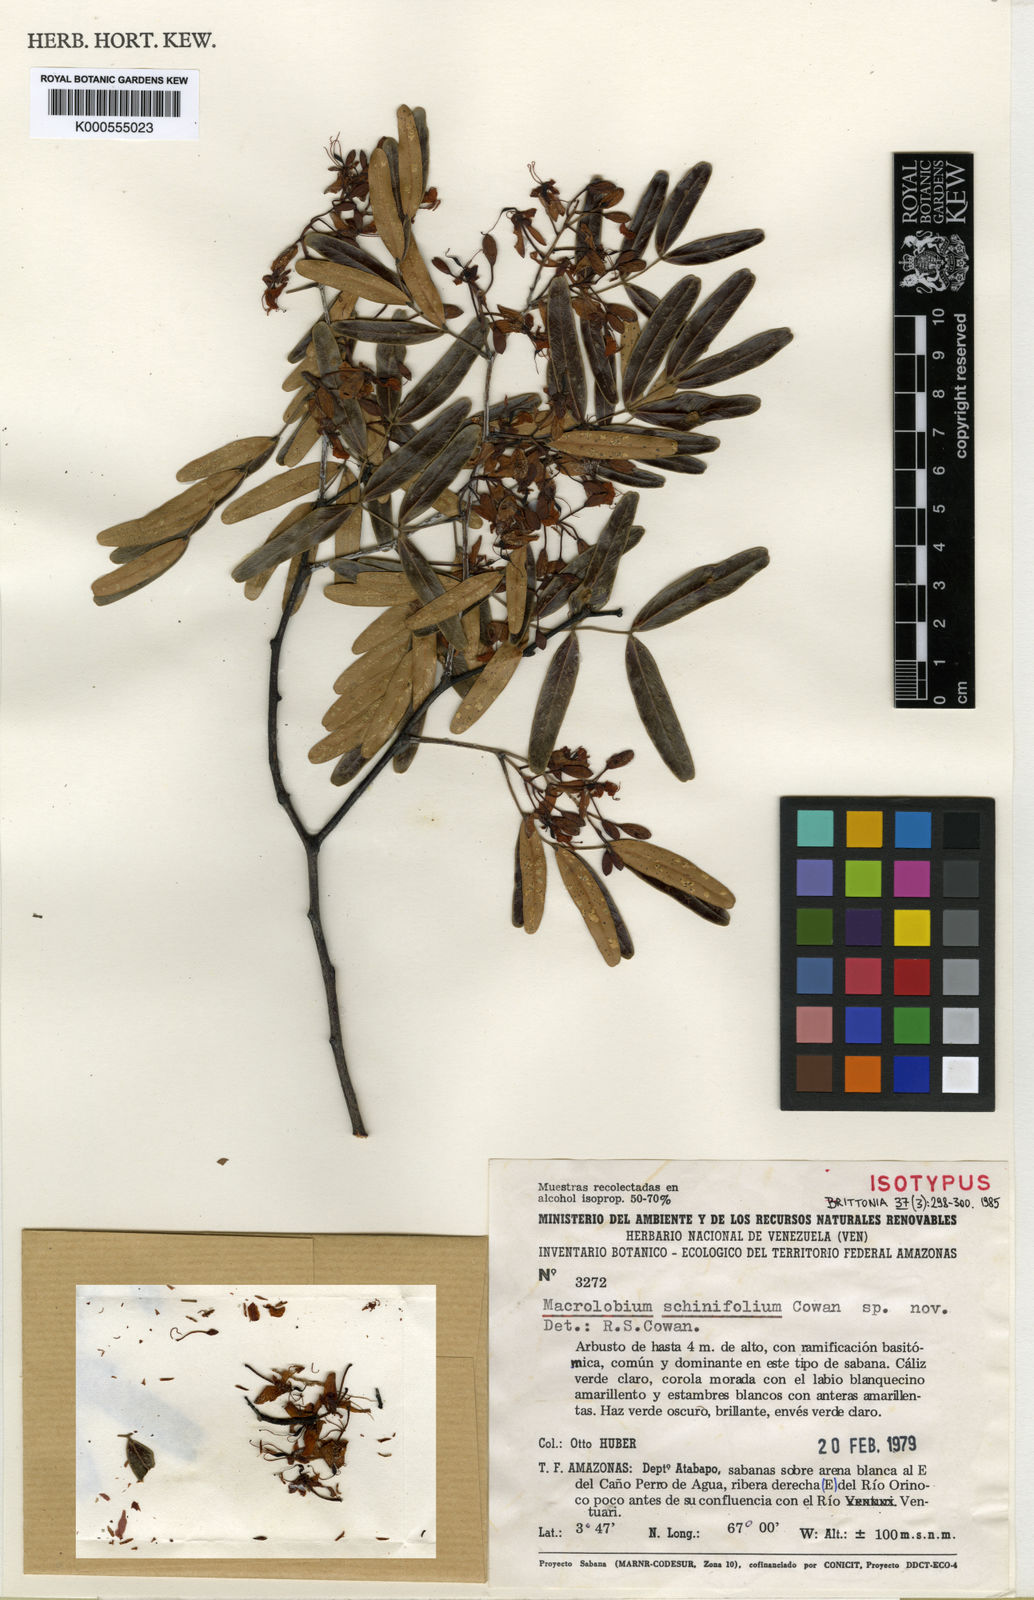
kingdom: Plantae
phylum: Tracheophyta
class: Magnoliopsida
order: Fabales
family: Fabaceae
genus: Macrolobium
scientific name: Macrolobium schinifolium
